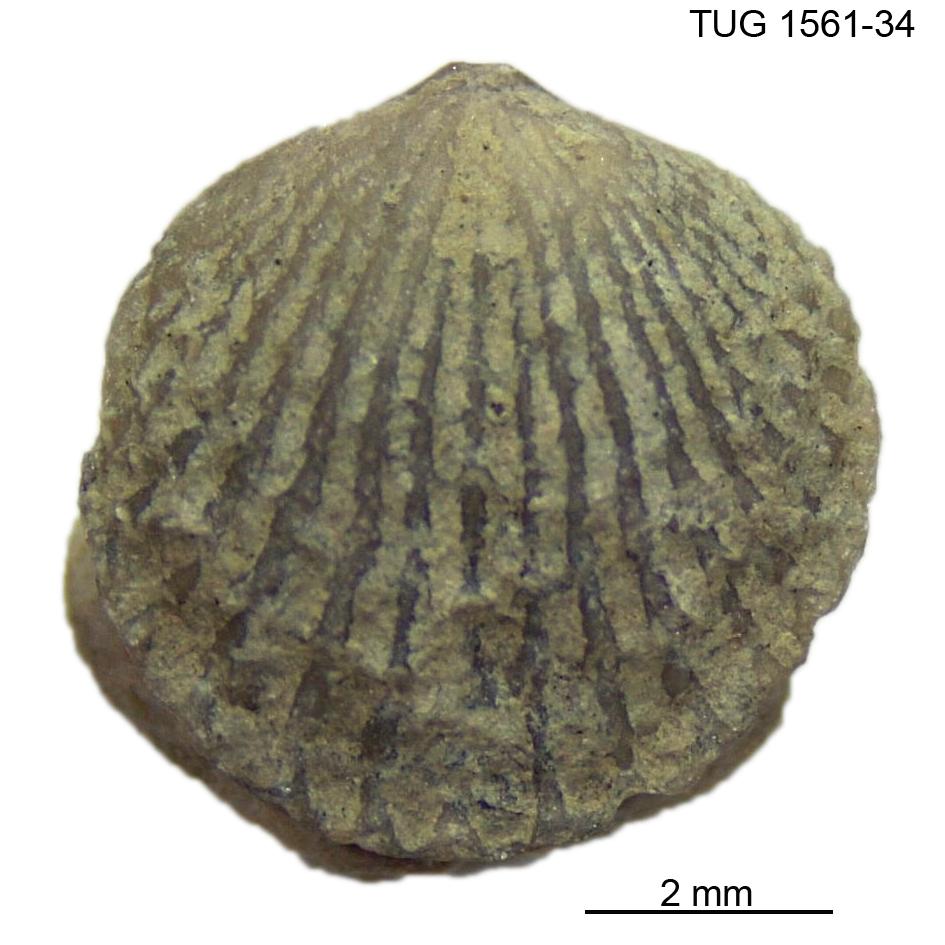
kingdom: Animalia
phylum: Brachiopoda
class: Rhynchonellata
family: Atrypidae
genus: Atrypa
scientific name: Atrypa reticularis
